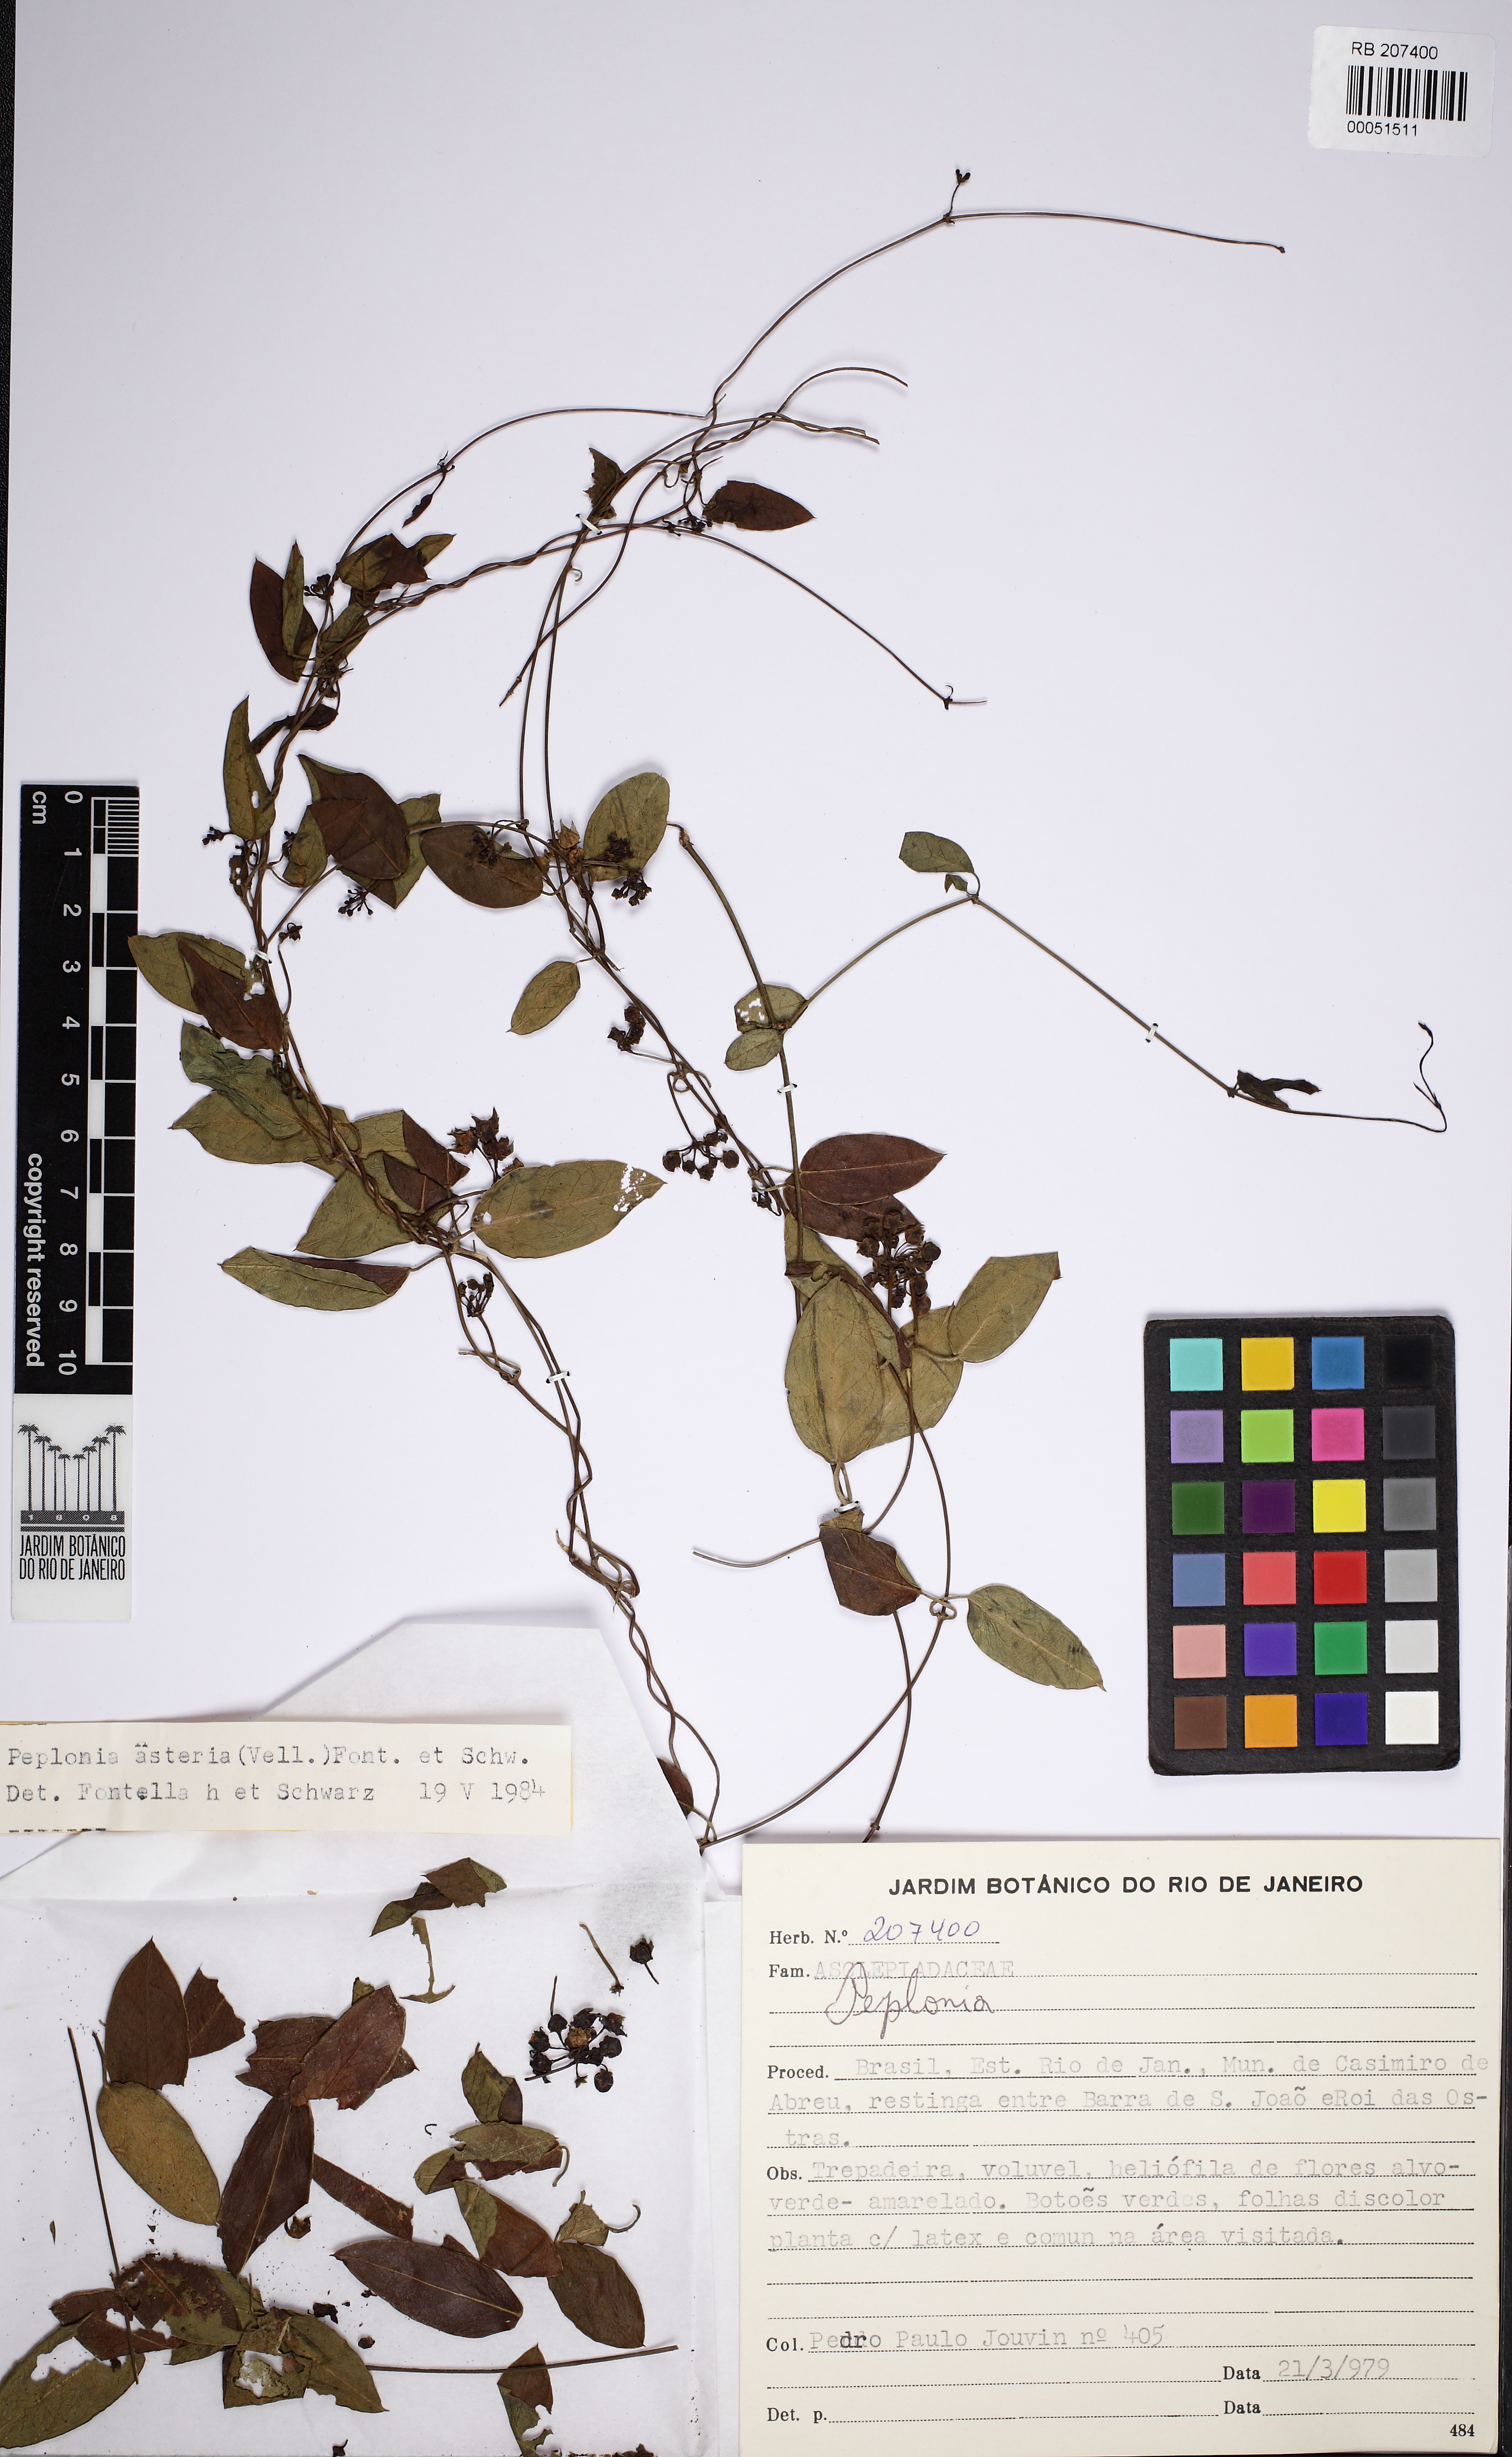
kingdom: Plantae
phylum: Tracheophyta
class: Magnoliopsida
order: Gentianales
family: Apocynaceae
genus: Peplonia
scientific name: Peplonia asteria
